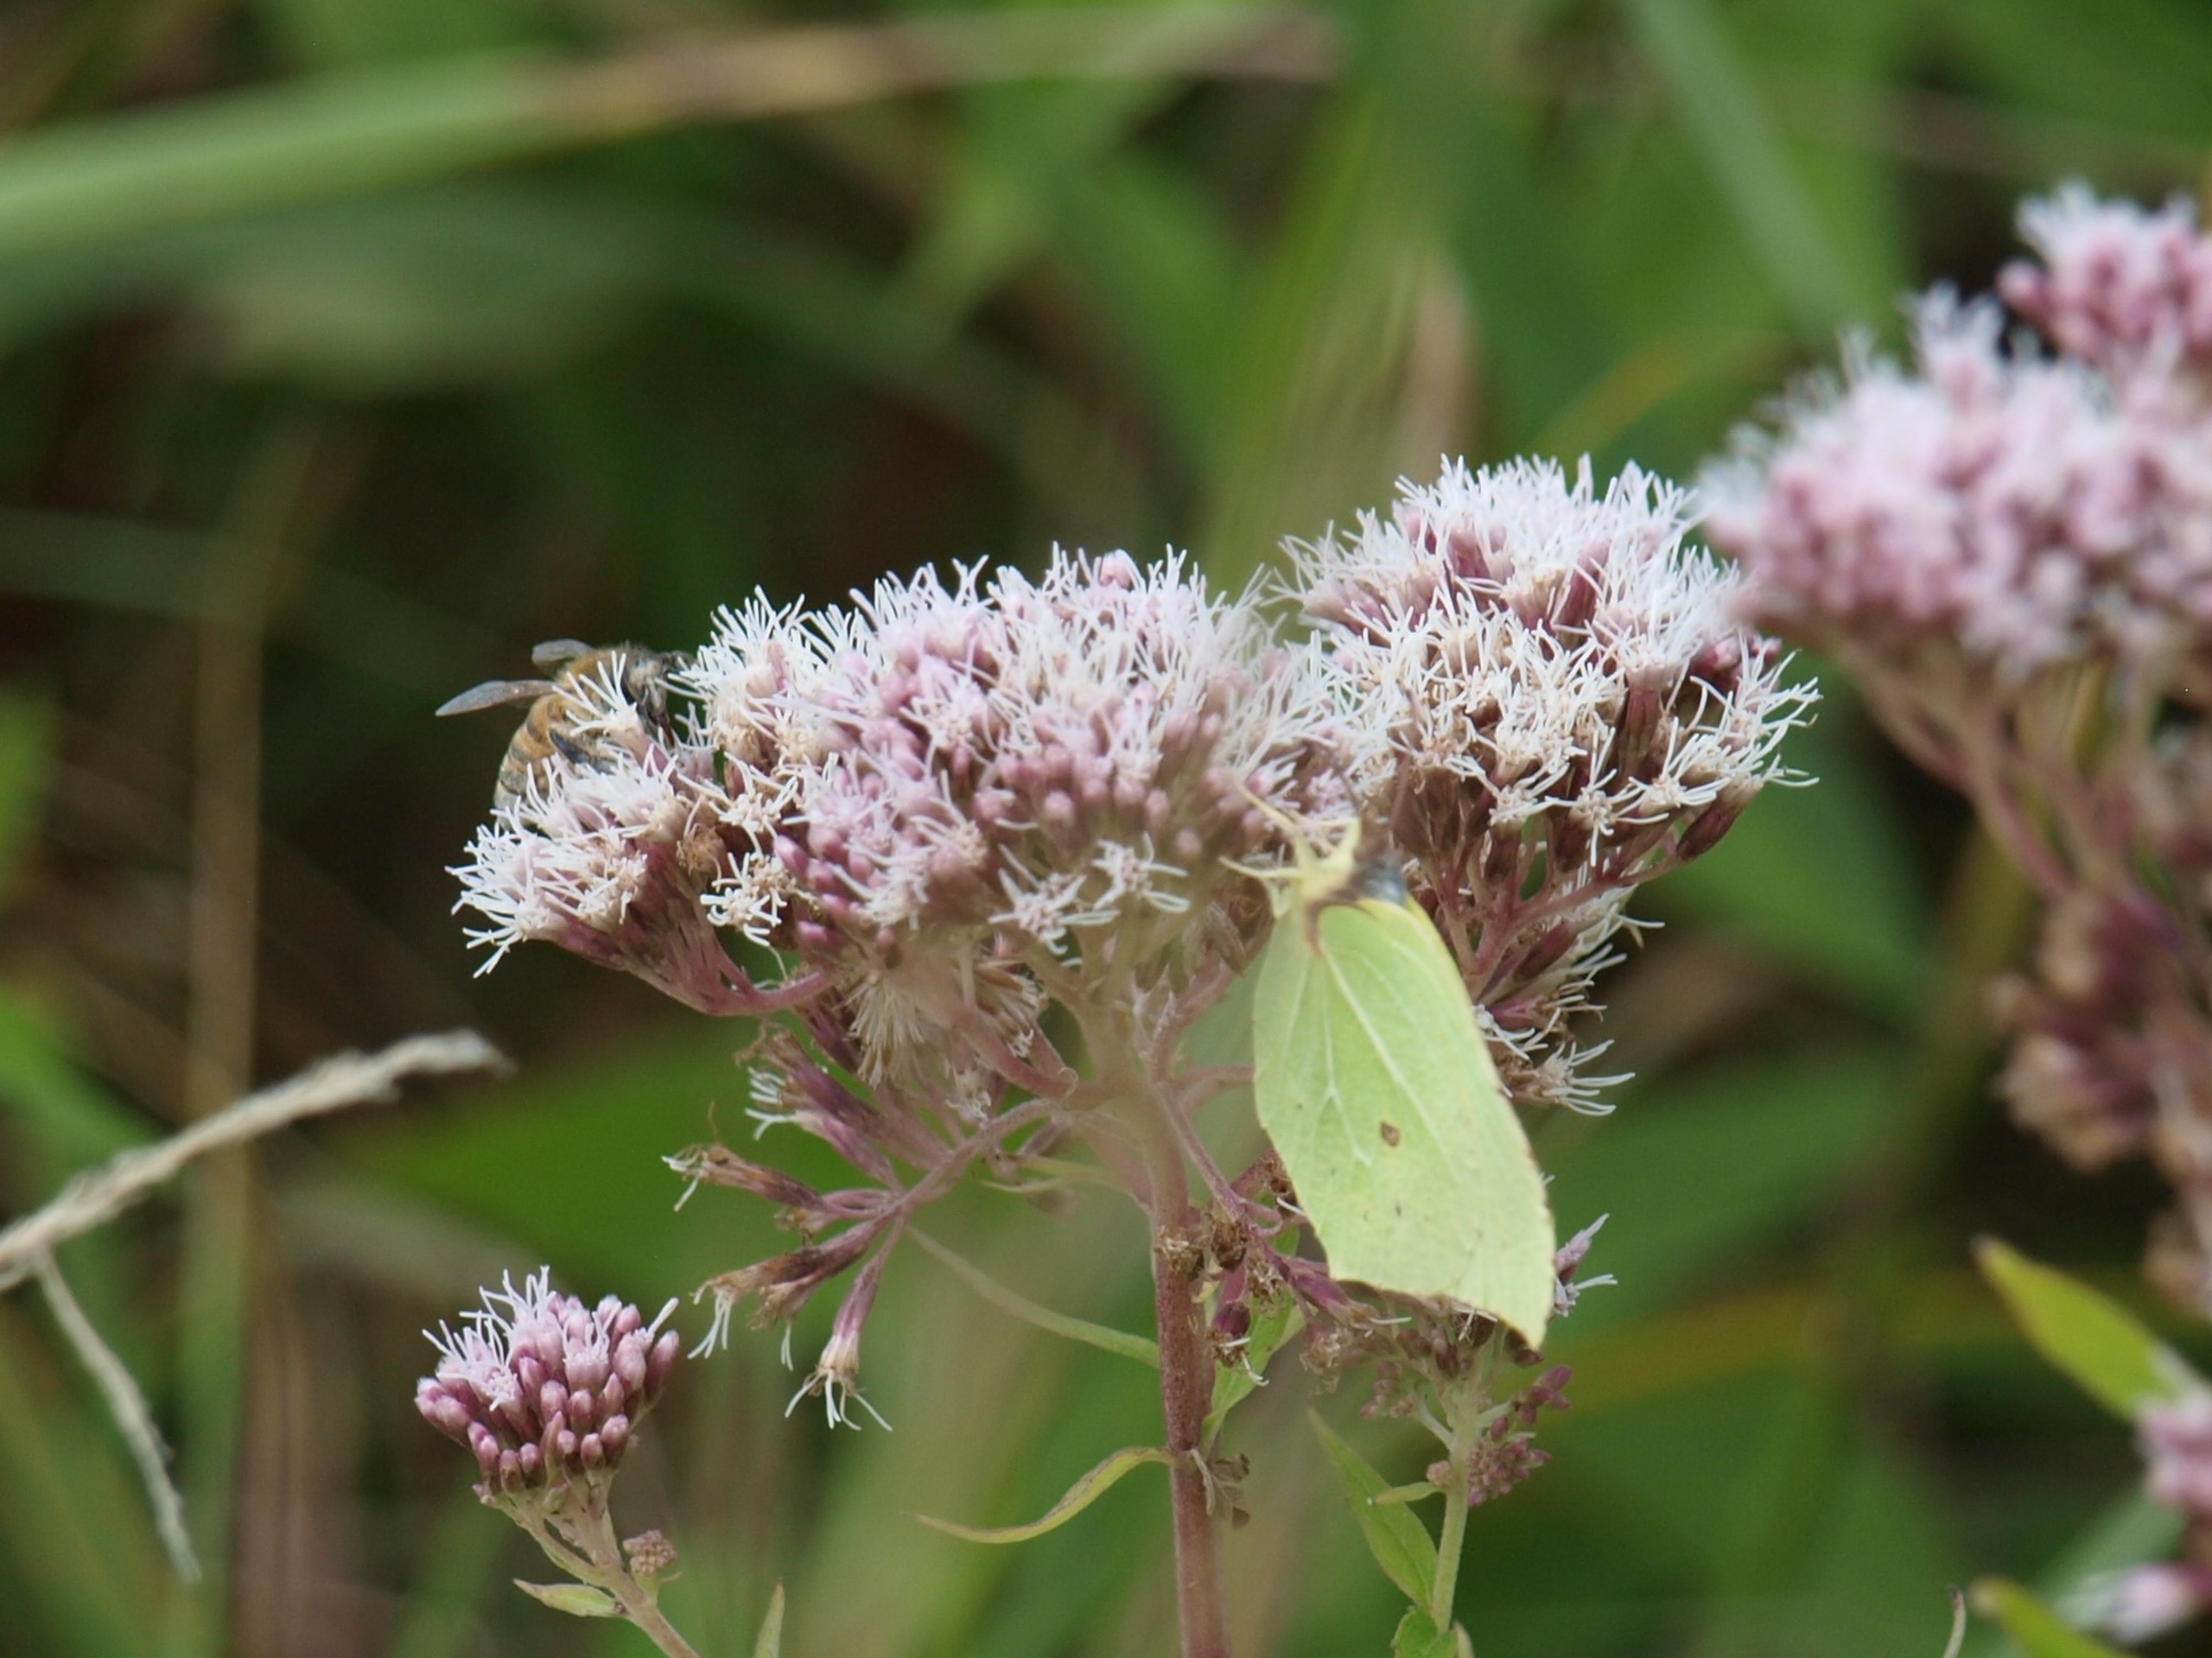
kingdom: Animalia
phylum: Arthropoda
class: Insecta
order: Lepidoptera
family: Pieridae
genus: Gonepteryx
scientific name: Gonepteryx rhamni
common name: Citronsommerfugl
